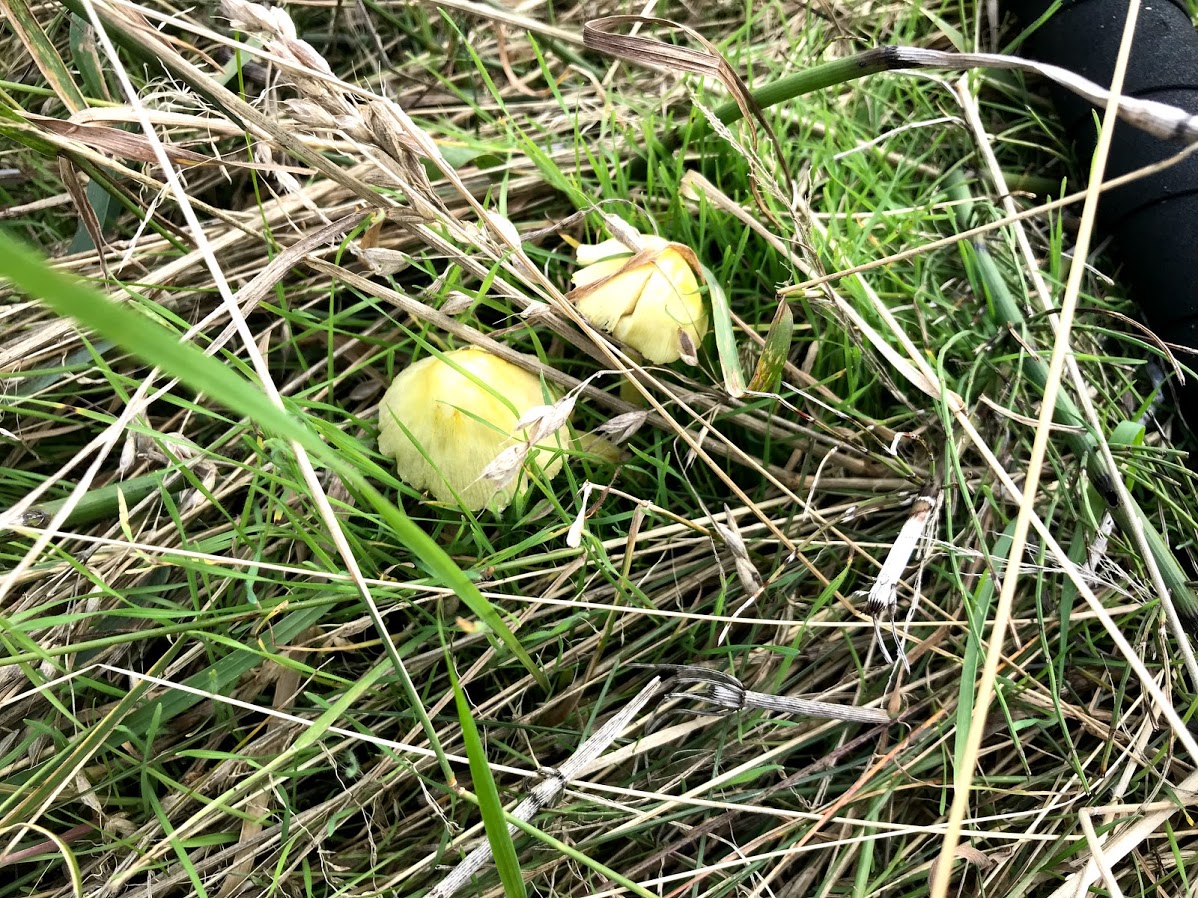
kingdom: Fungi
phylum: Basidiomycota
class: Agaricomycetes
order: Agaricales
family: Bolbitiaceae
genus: Bolbitius
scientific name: Bolbitius titubans
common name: almindelig gulhat
